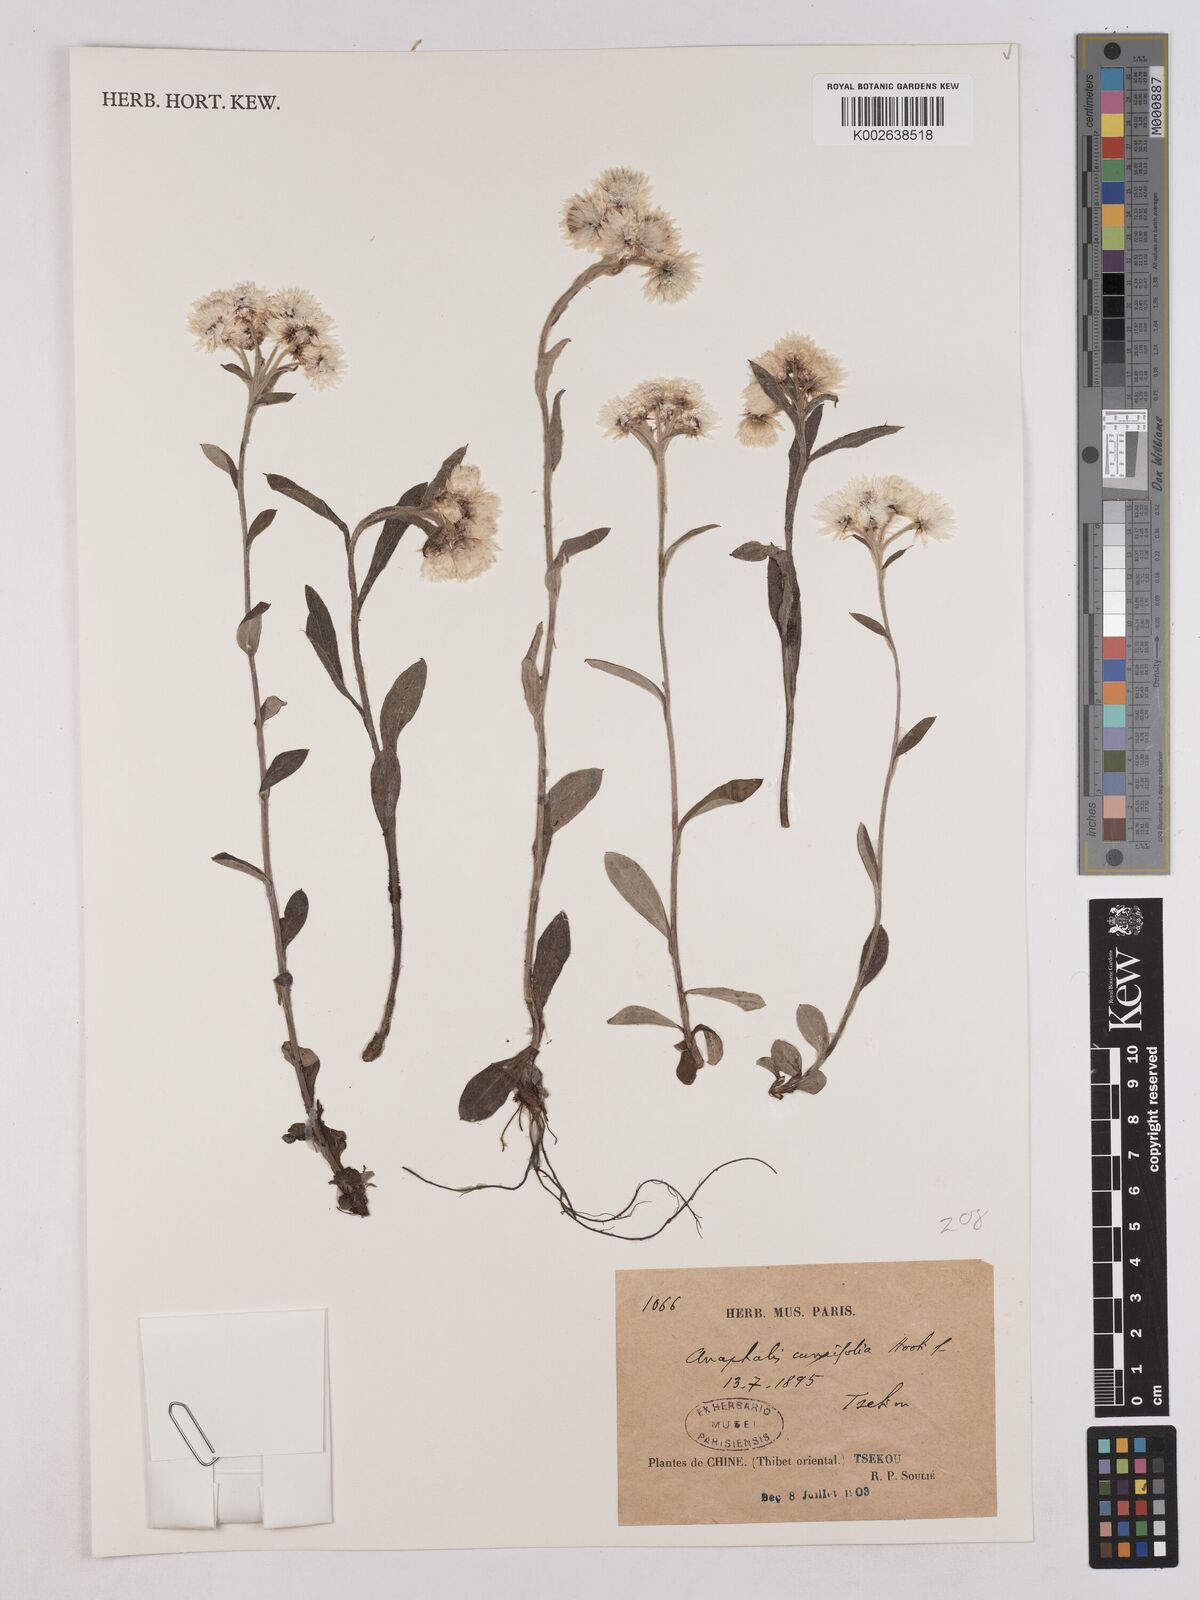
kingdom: Plantae
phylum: Tracheophyta
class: Magnoliopsida
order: Asterales
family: Asteraceae
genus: Anaphalis
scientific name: Anaphalis nepalensis
